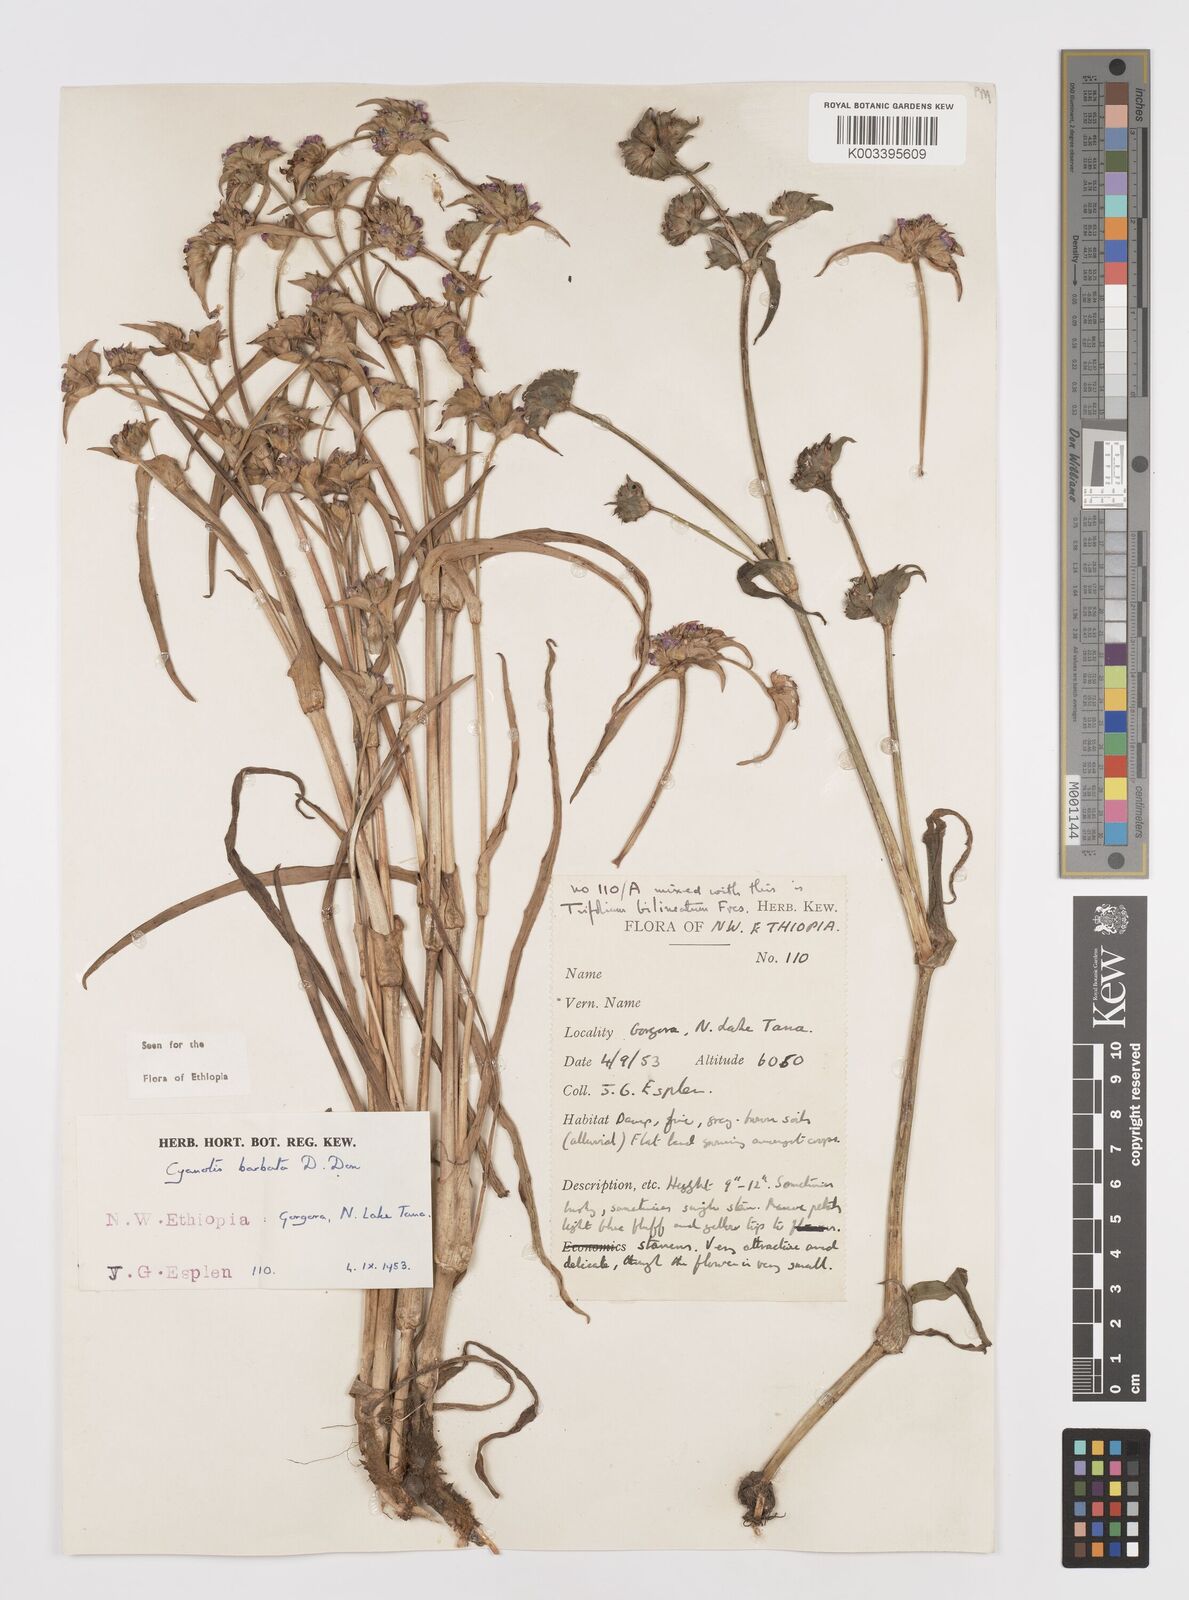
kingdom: Plantae
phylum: Tracheophyta
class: Liliopsida
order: Commelinales
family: Commelinaceae
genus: Cyanotis
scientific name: Cyanotis vaga
